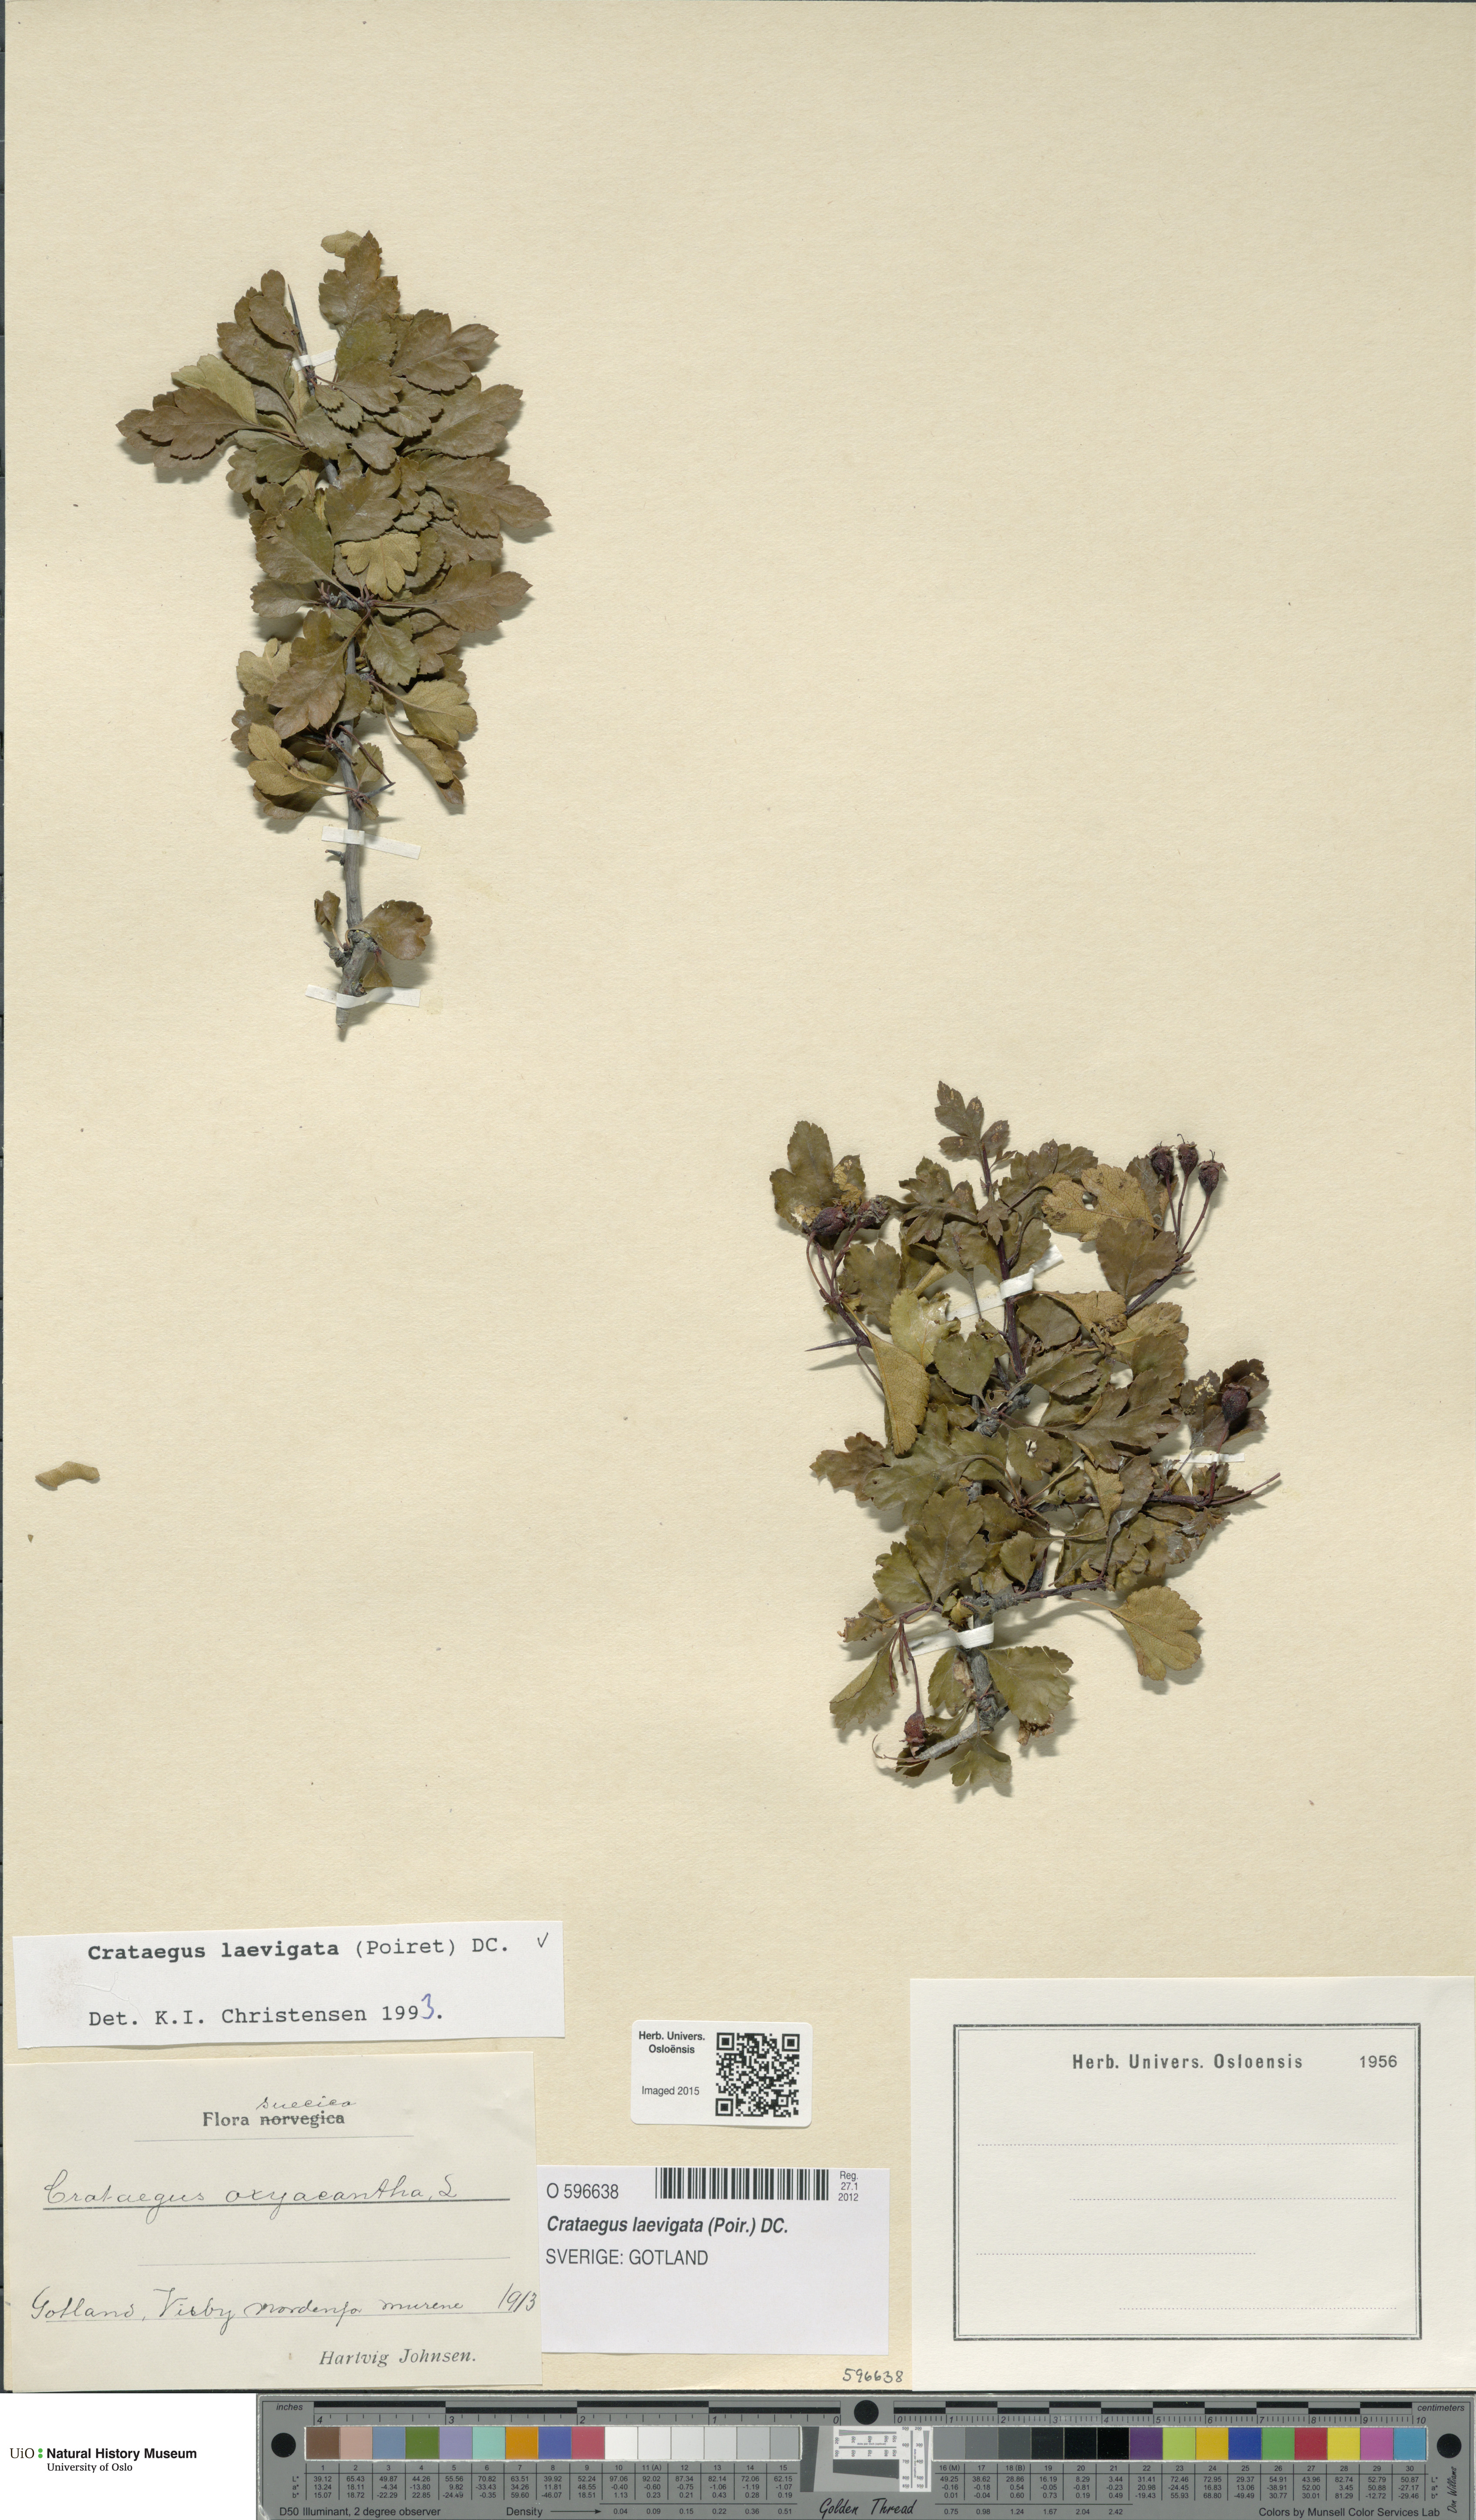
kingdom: Plantae
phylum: Tracheophyta
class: Magnoliopsida
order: Rosales
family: Rosaceae
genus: Crataegus
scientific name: Crataegus laevigata
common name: Midland hawthorn
